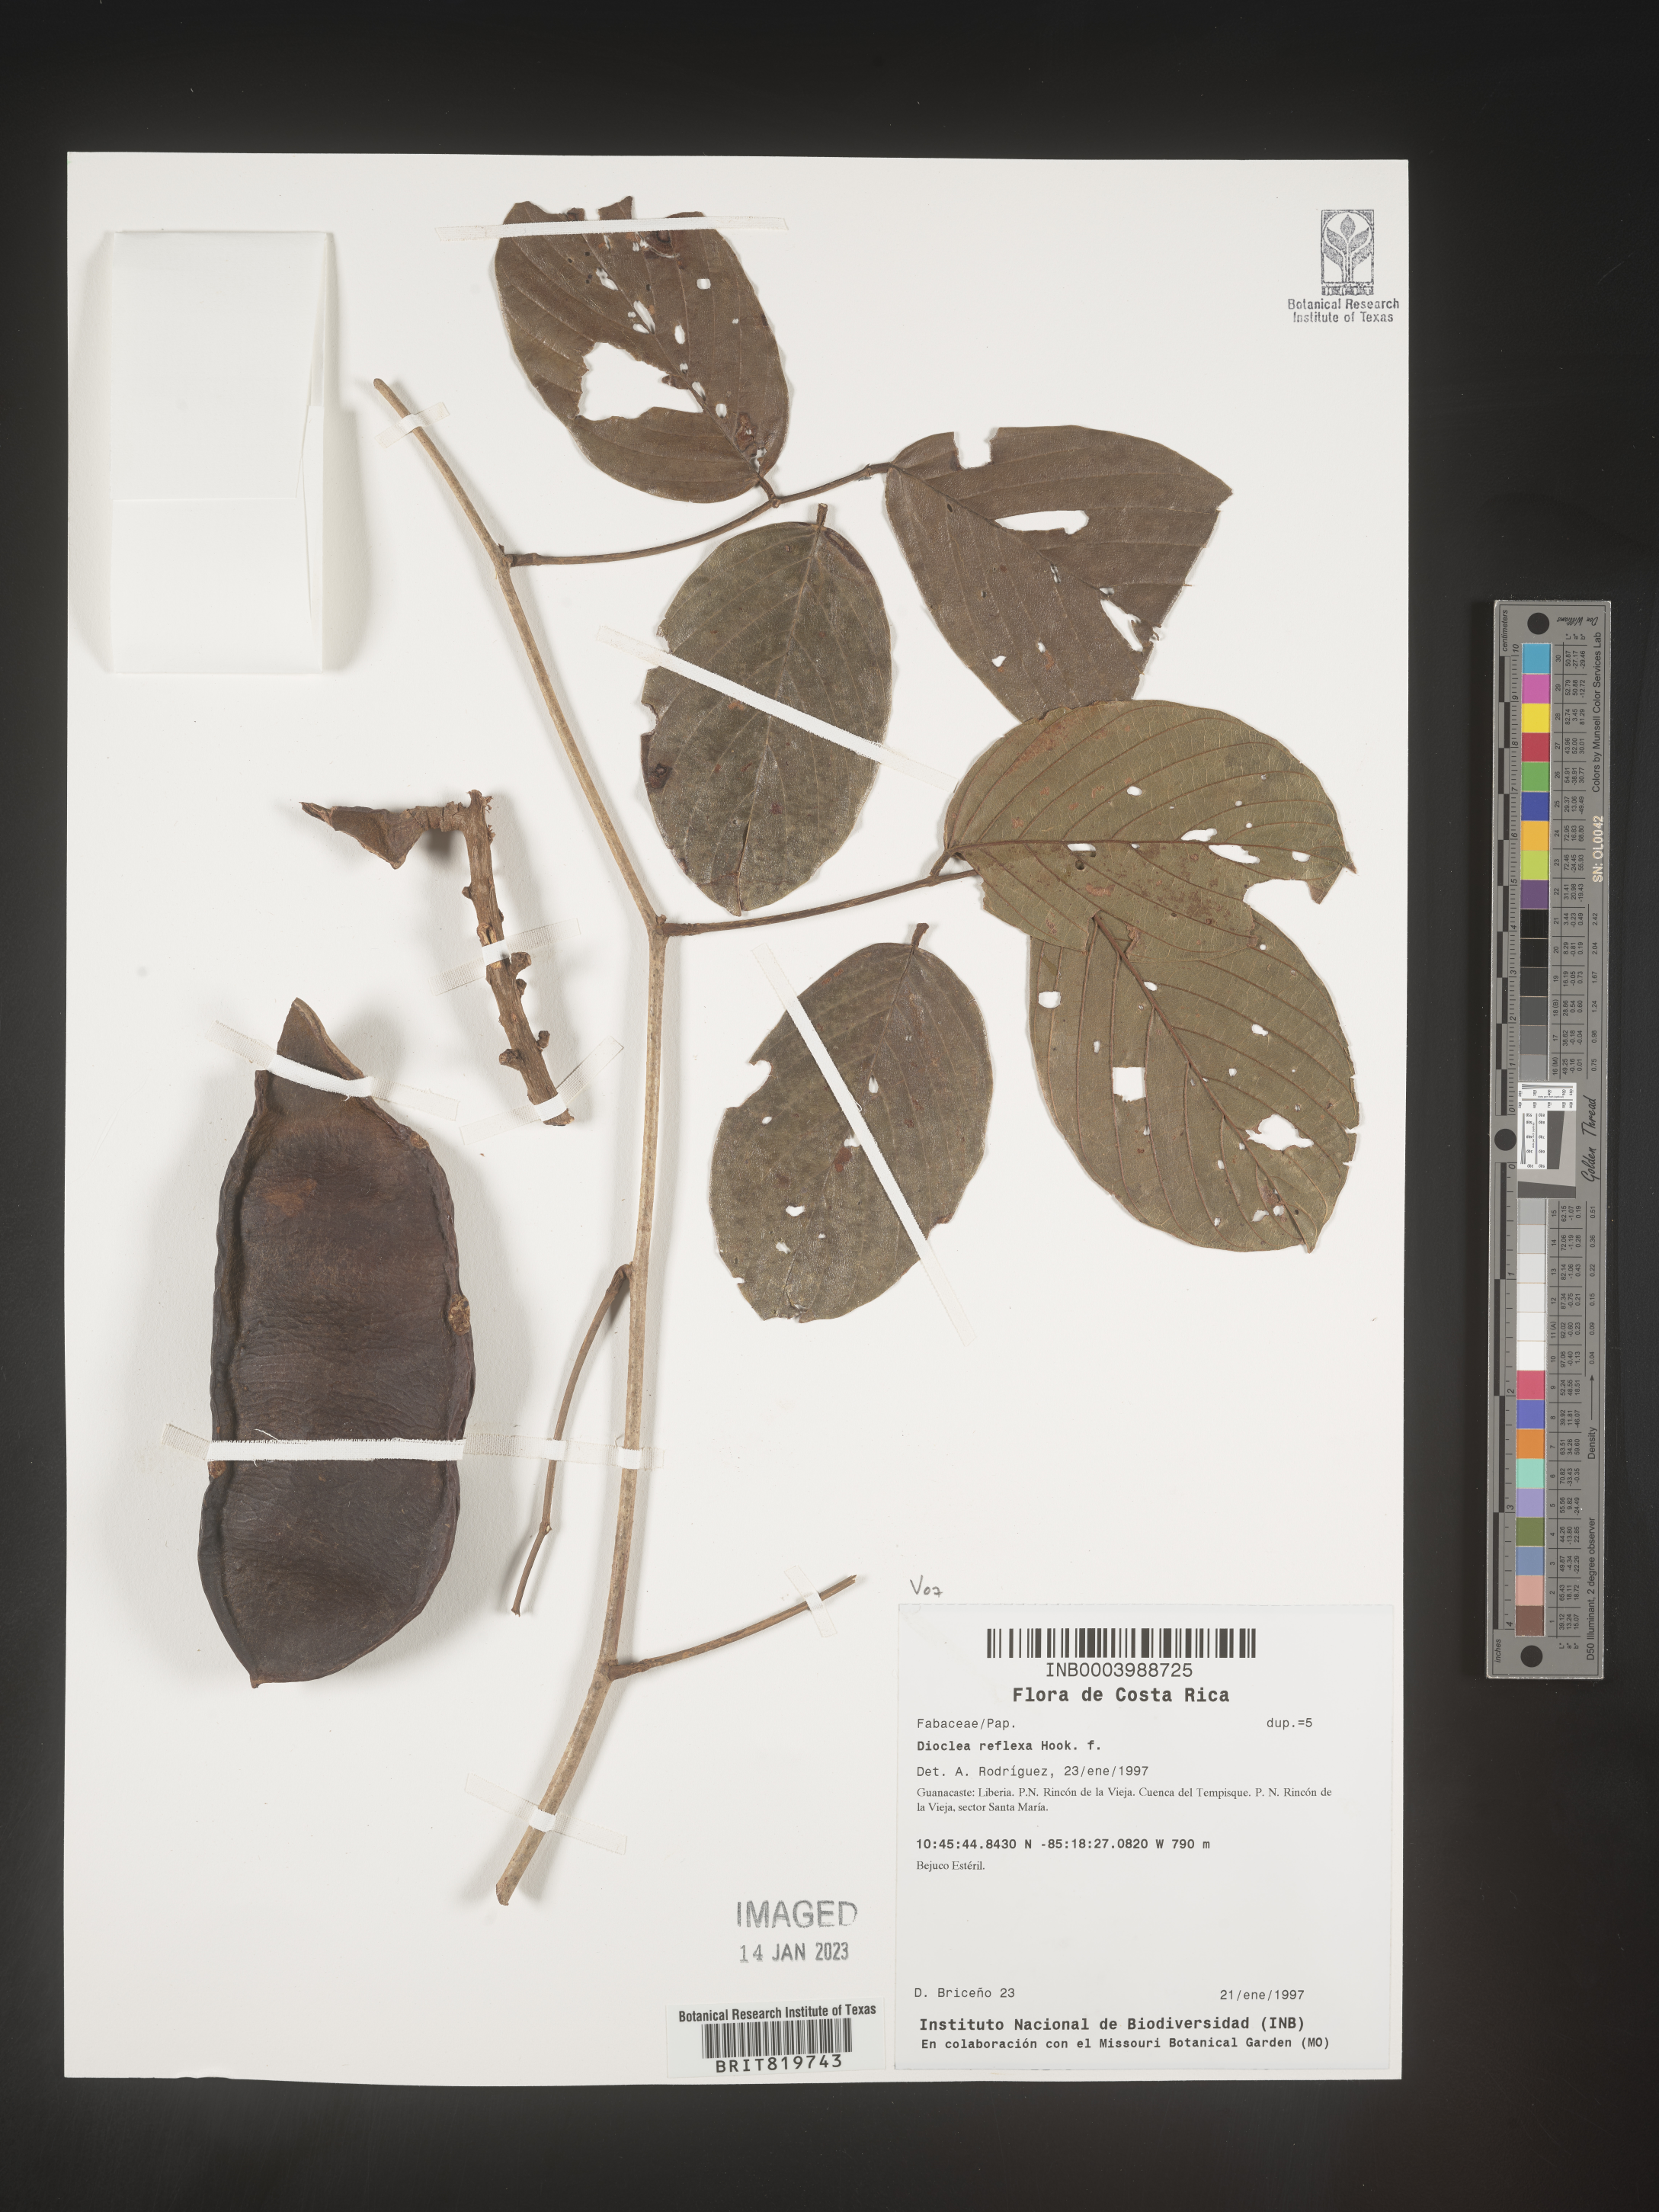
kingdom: Plantae
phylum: Tracheophyta
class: Magnoliopsida
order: Fabales
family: Fabaceae
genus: Dioclea
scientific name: Dioclea
